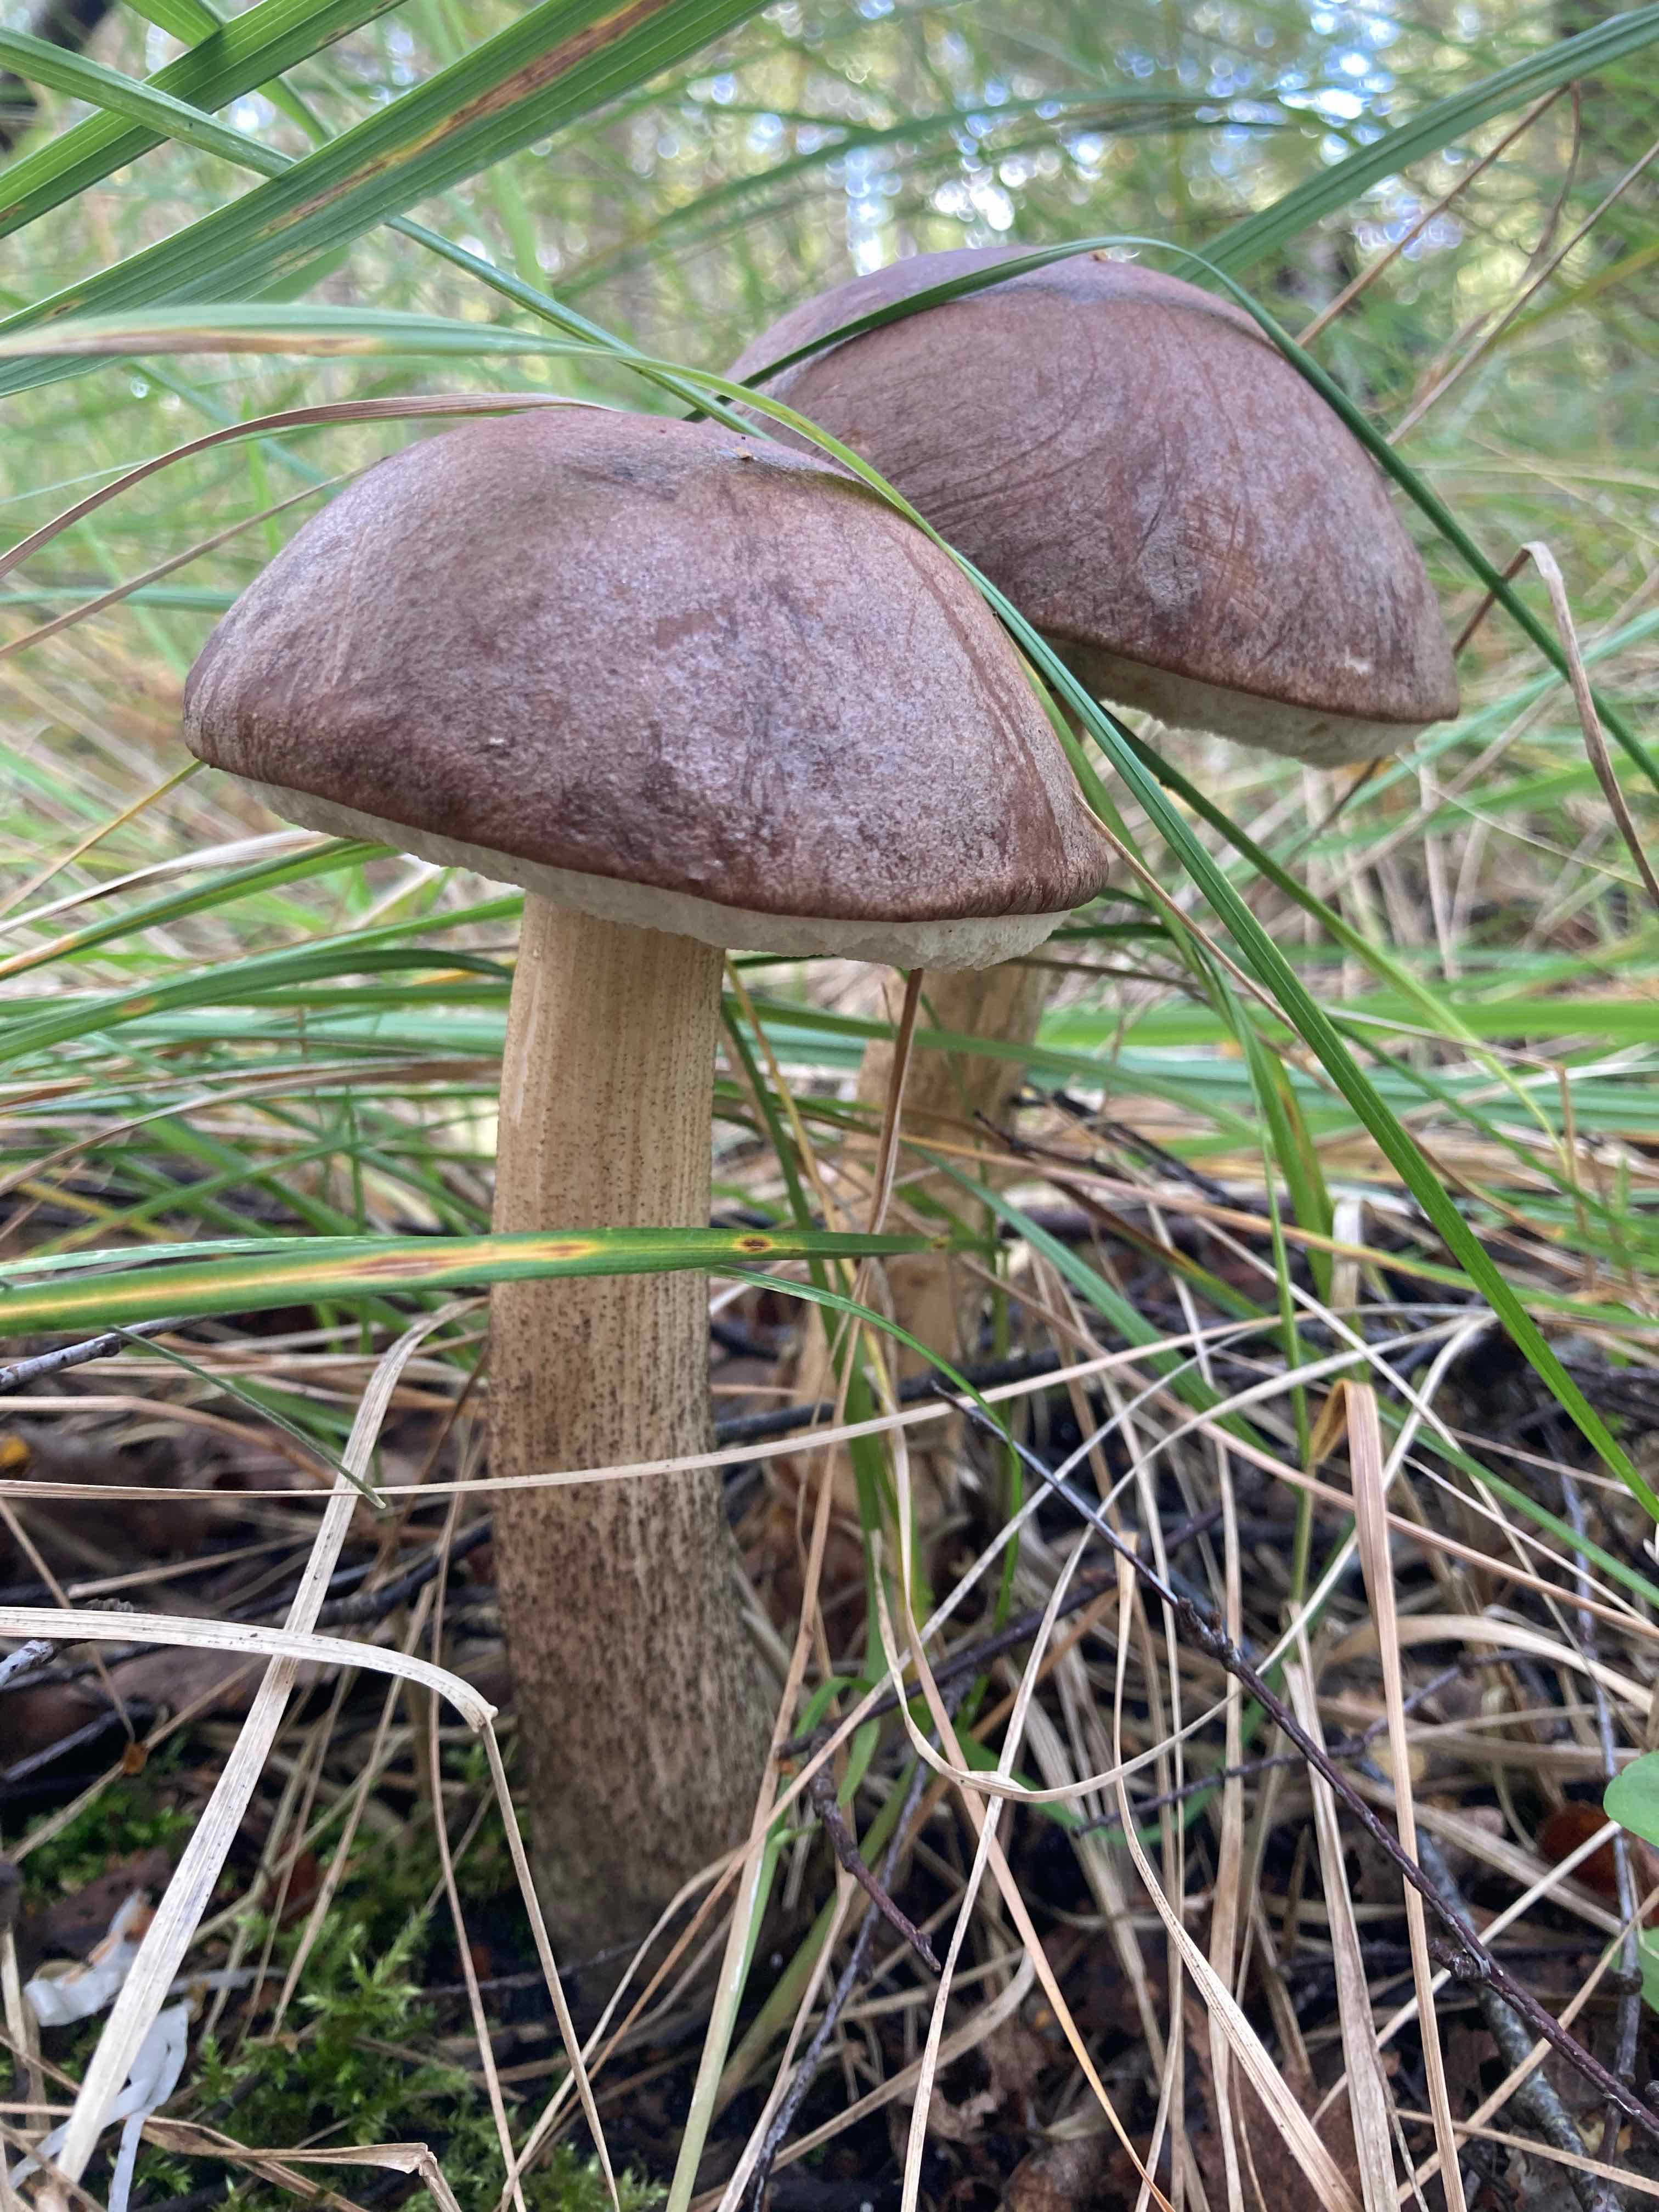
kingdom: Fungi
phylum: Basidiomycota
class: Agaricomycetes
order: Boletales
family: Boletaceae
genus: Leccinum
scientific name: Leccinum scabrum
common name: brun skælrørhat
